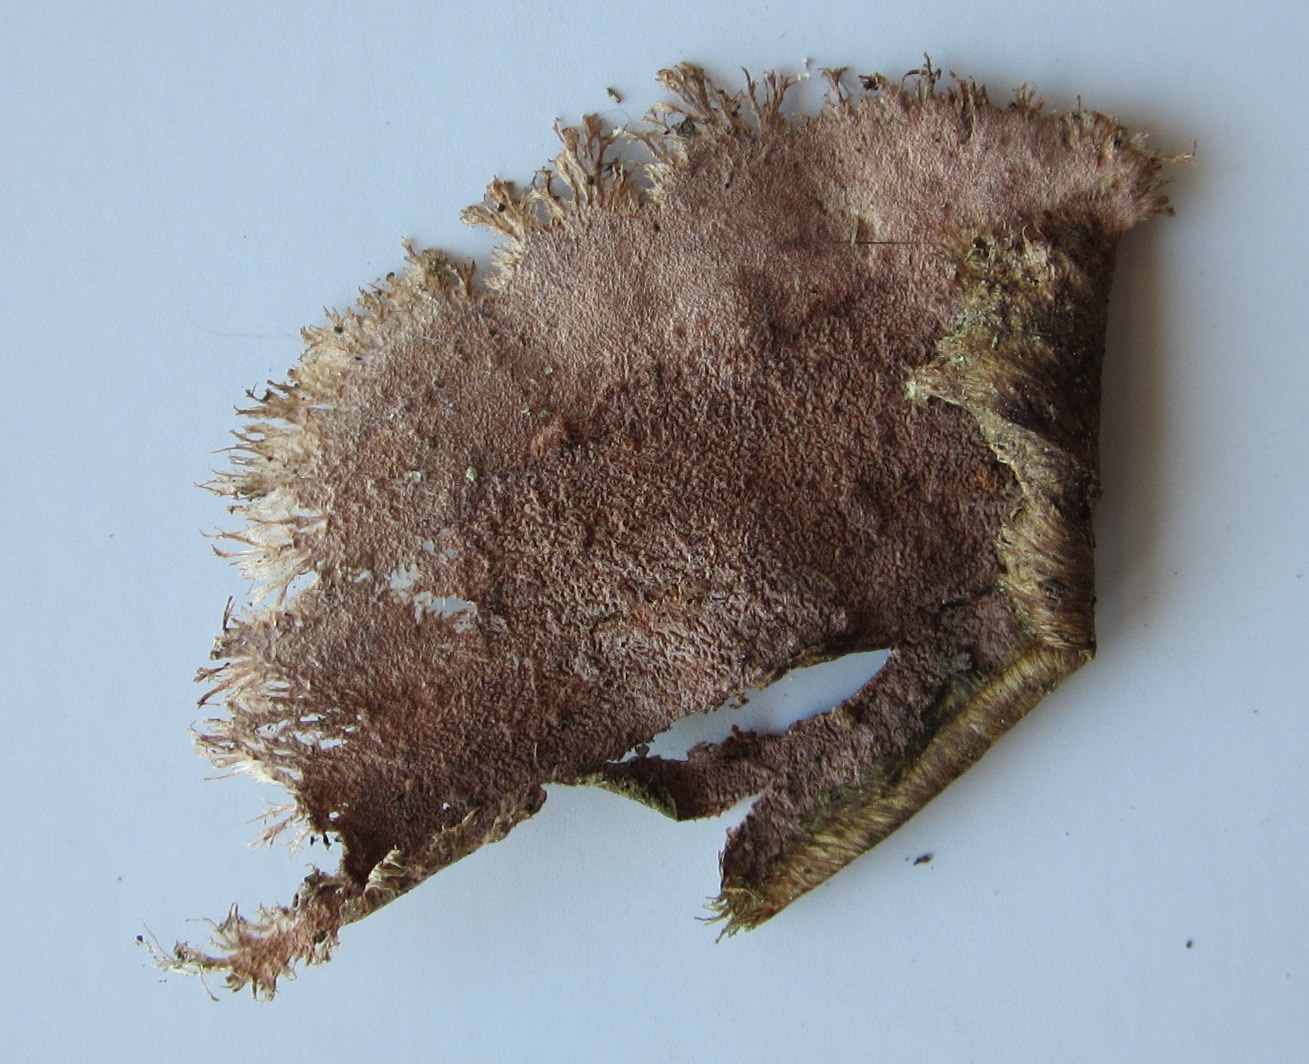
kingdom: Fungi
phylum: Basidiomycota
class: Agaricomycetes
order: Polyporales
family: Steccherinaceae
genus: Steccherinum
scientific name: Steccherinum fimbriatum
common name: trådet skønpig
